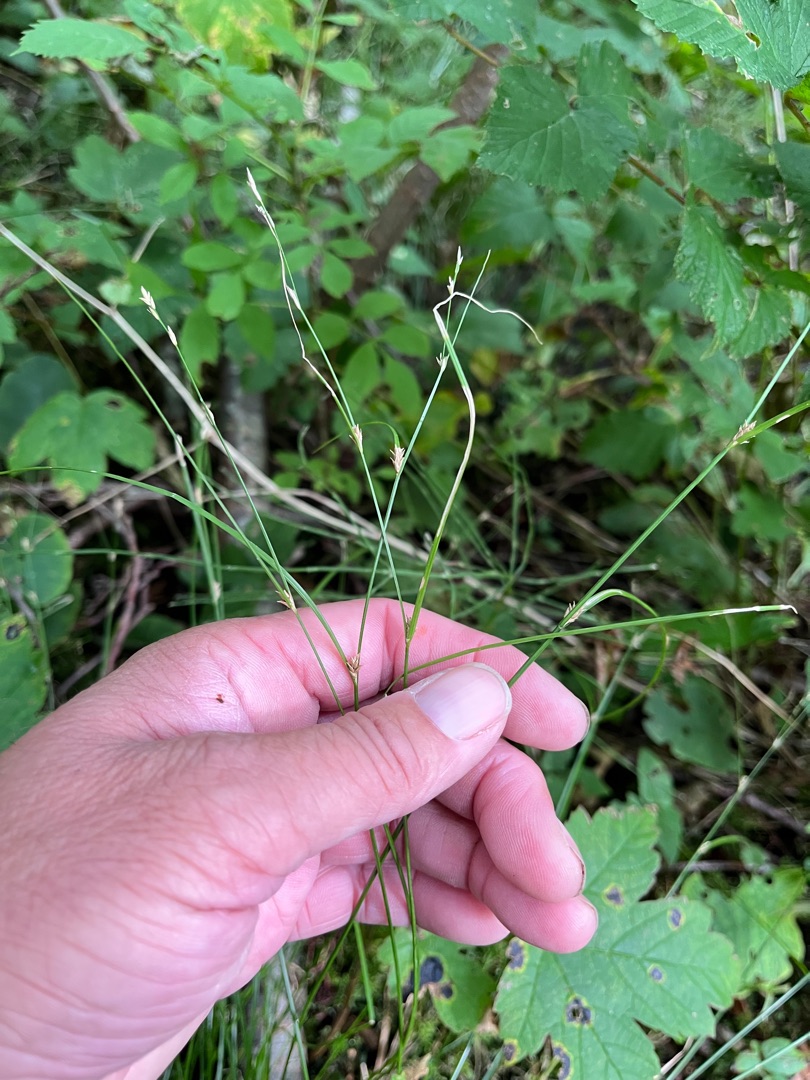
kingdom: Plantae
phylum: Tracheophyta
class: Liliopsida
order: Poales
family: Cyperaceae
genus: Carex
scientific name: Carex remota
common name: Akselblomstret star
